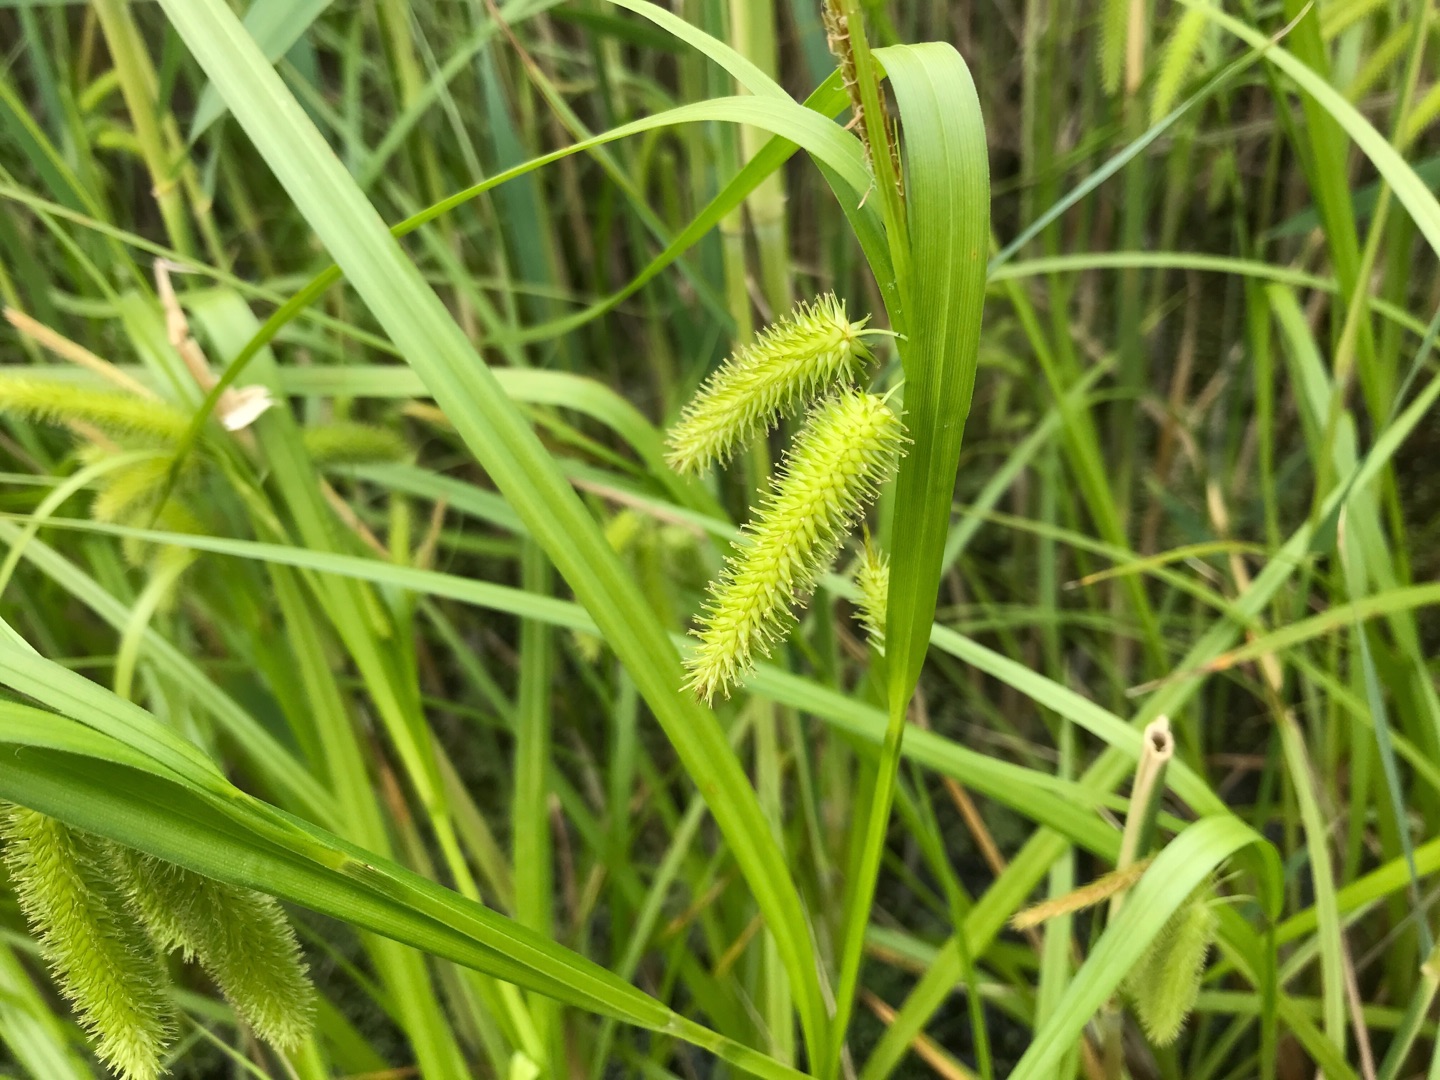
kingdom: Plantae
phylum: Tracheophyta
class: Liliopsida
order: Poales
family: Cyperaceae
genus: Carex
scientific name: Carex pseudocyperus
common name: Knippe-star
